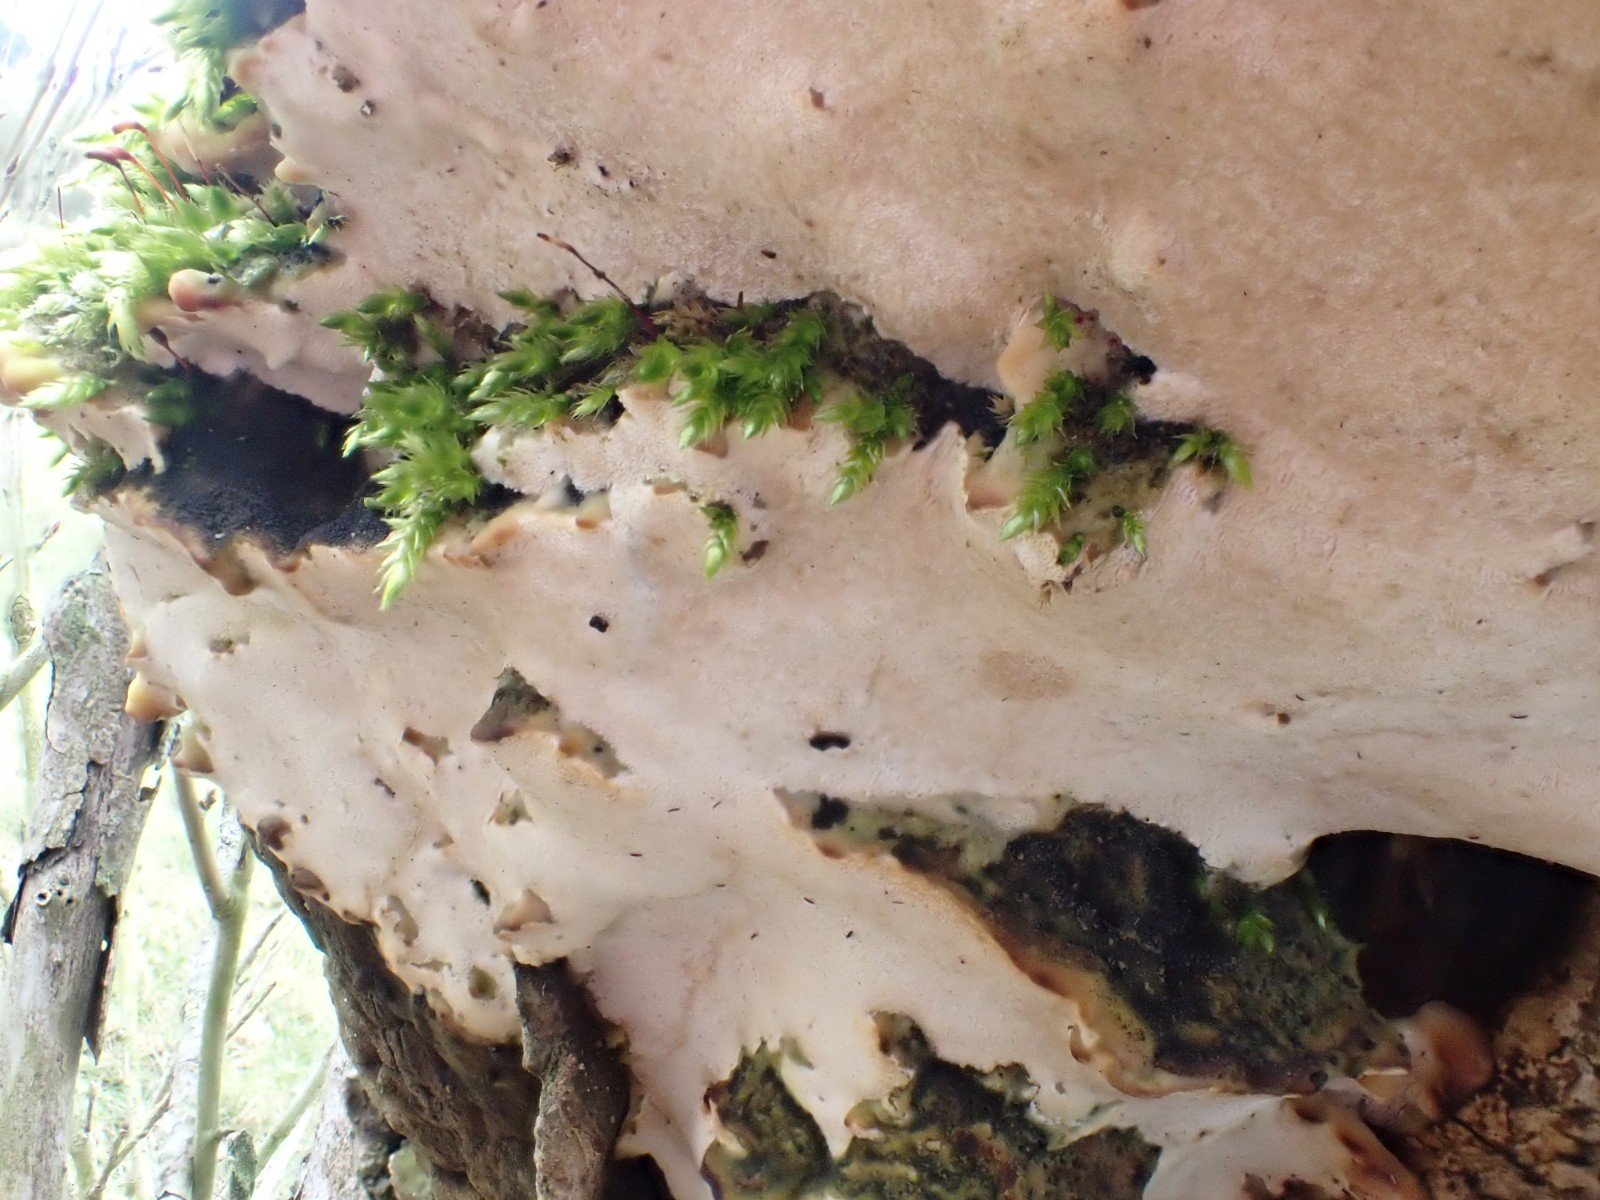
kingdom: Fungi
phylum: Basidiomycota
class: Agaricomycetes
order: Hymenochaetales
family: Oxyporaceae
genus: Oxyporus
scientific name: Oxyporus populinus
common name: sammenvokset trylleporesvamp
